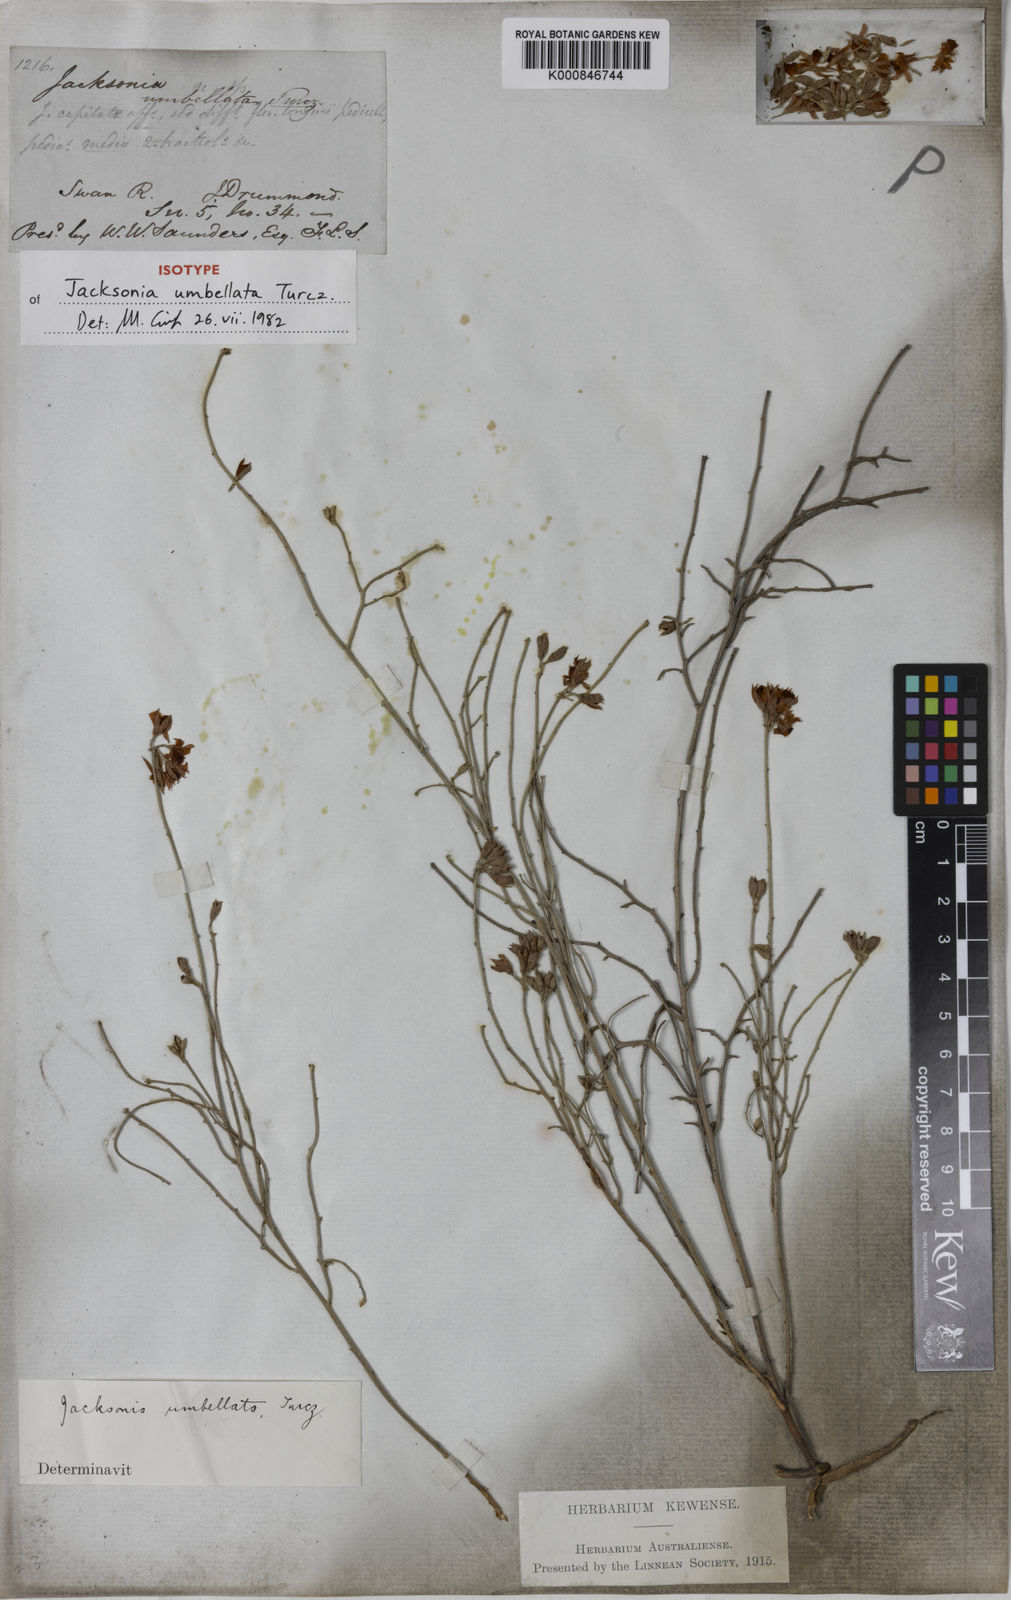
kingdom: Plantae
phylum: Tracheophyta
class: Magnoliopsida
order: Fabales
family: Fabaceae
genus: Jacksonia
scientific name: Jacksonia capitata
